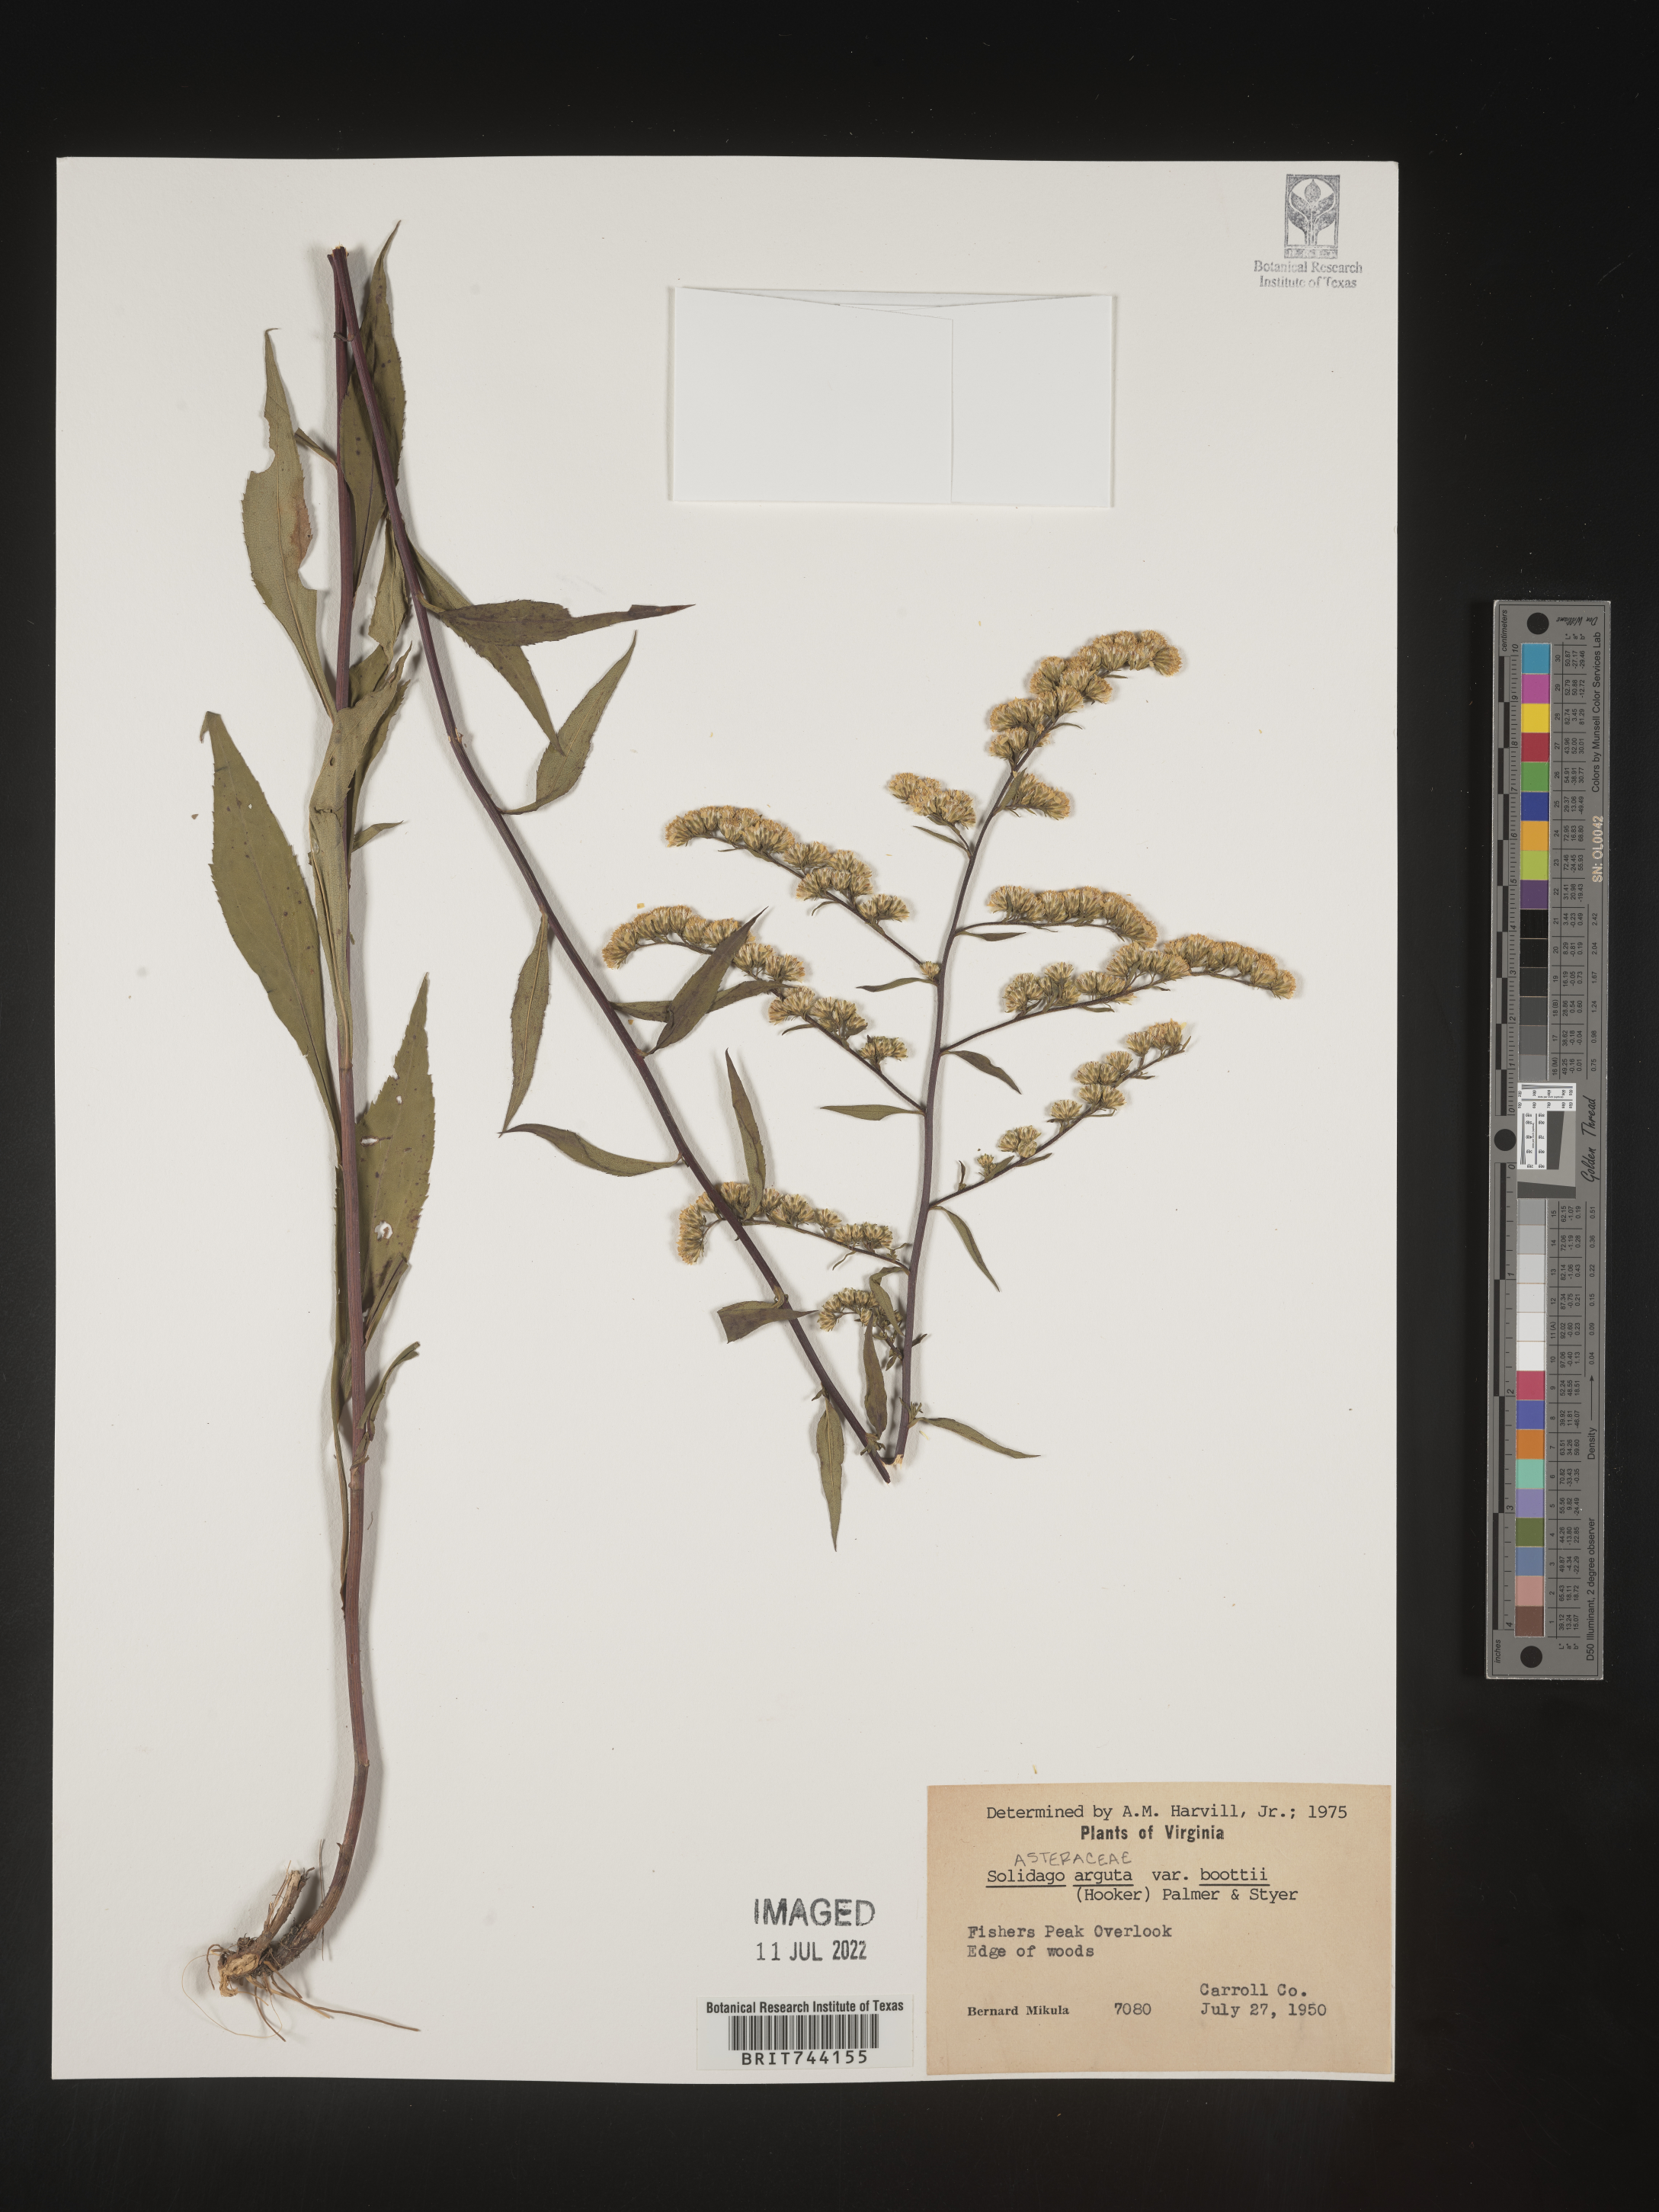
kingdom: Plantae
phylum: Tracheophyta
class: Magnoliopsida
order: Asterales
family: Asteraceae
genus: Solidago
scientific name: Solidago arguta
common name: Atlantic goldenrod
